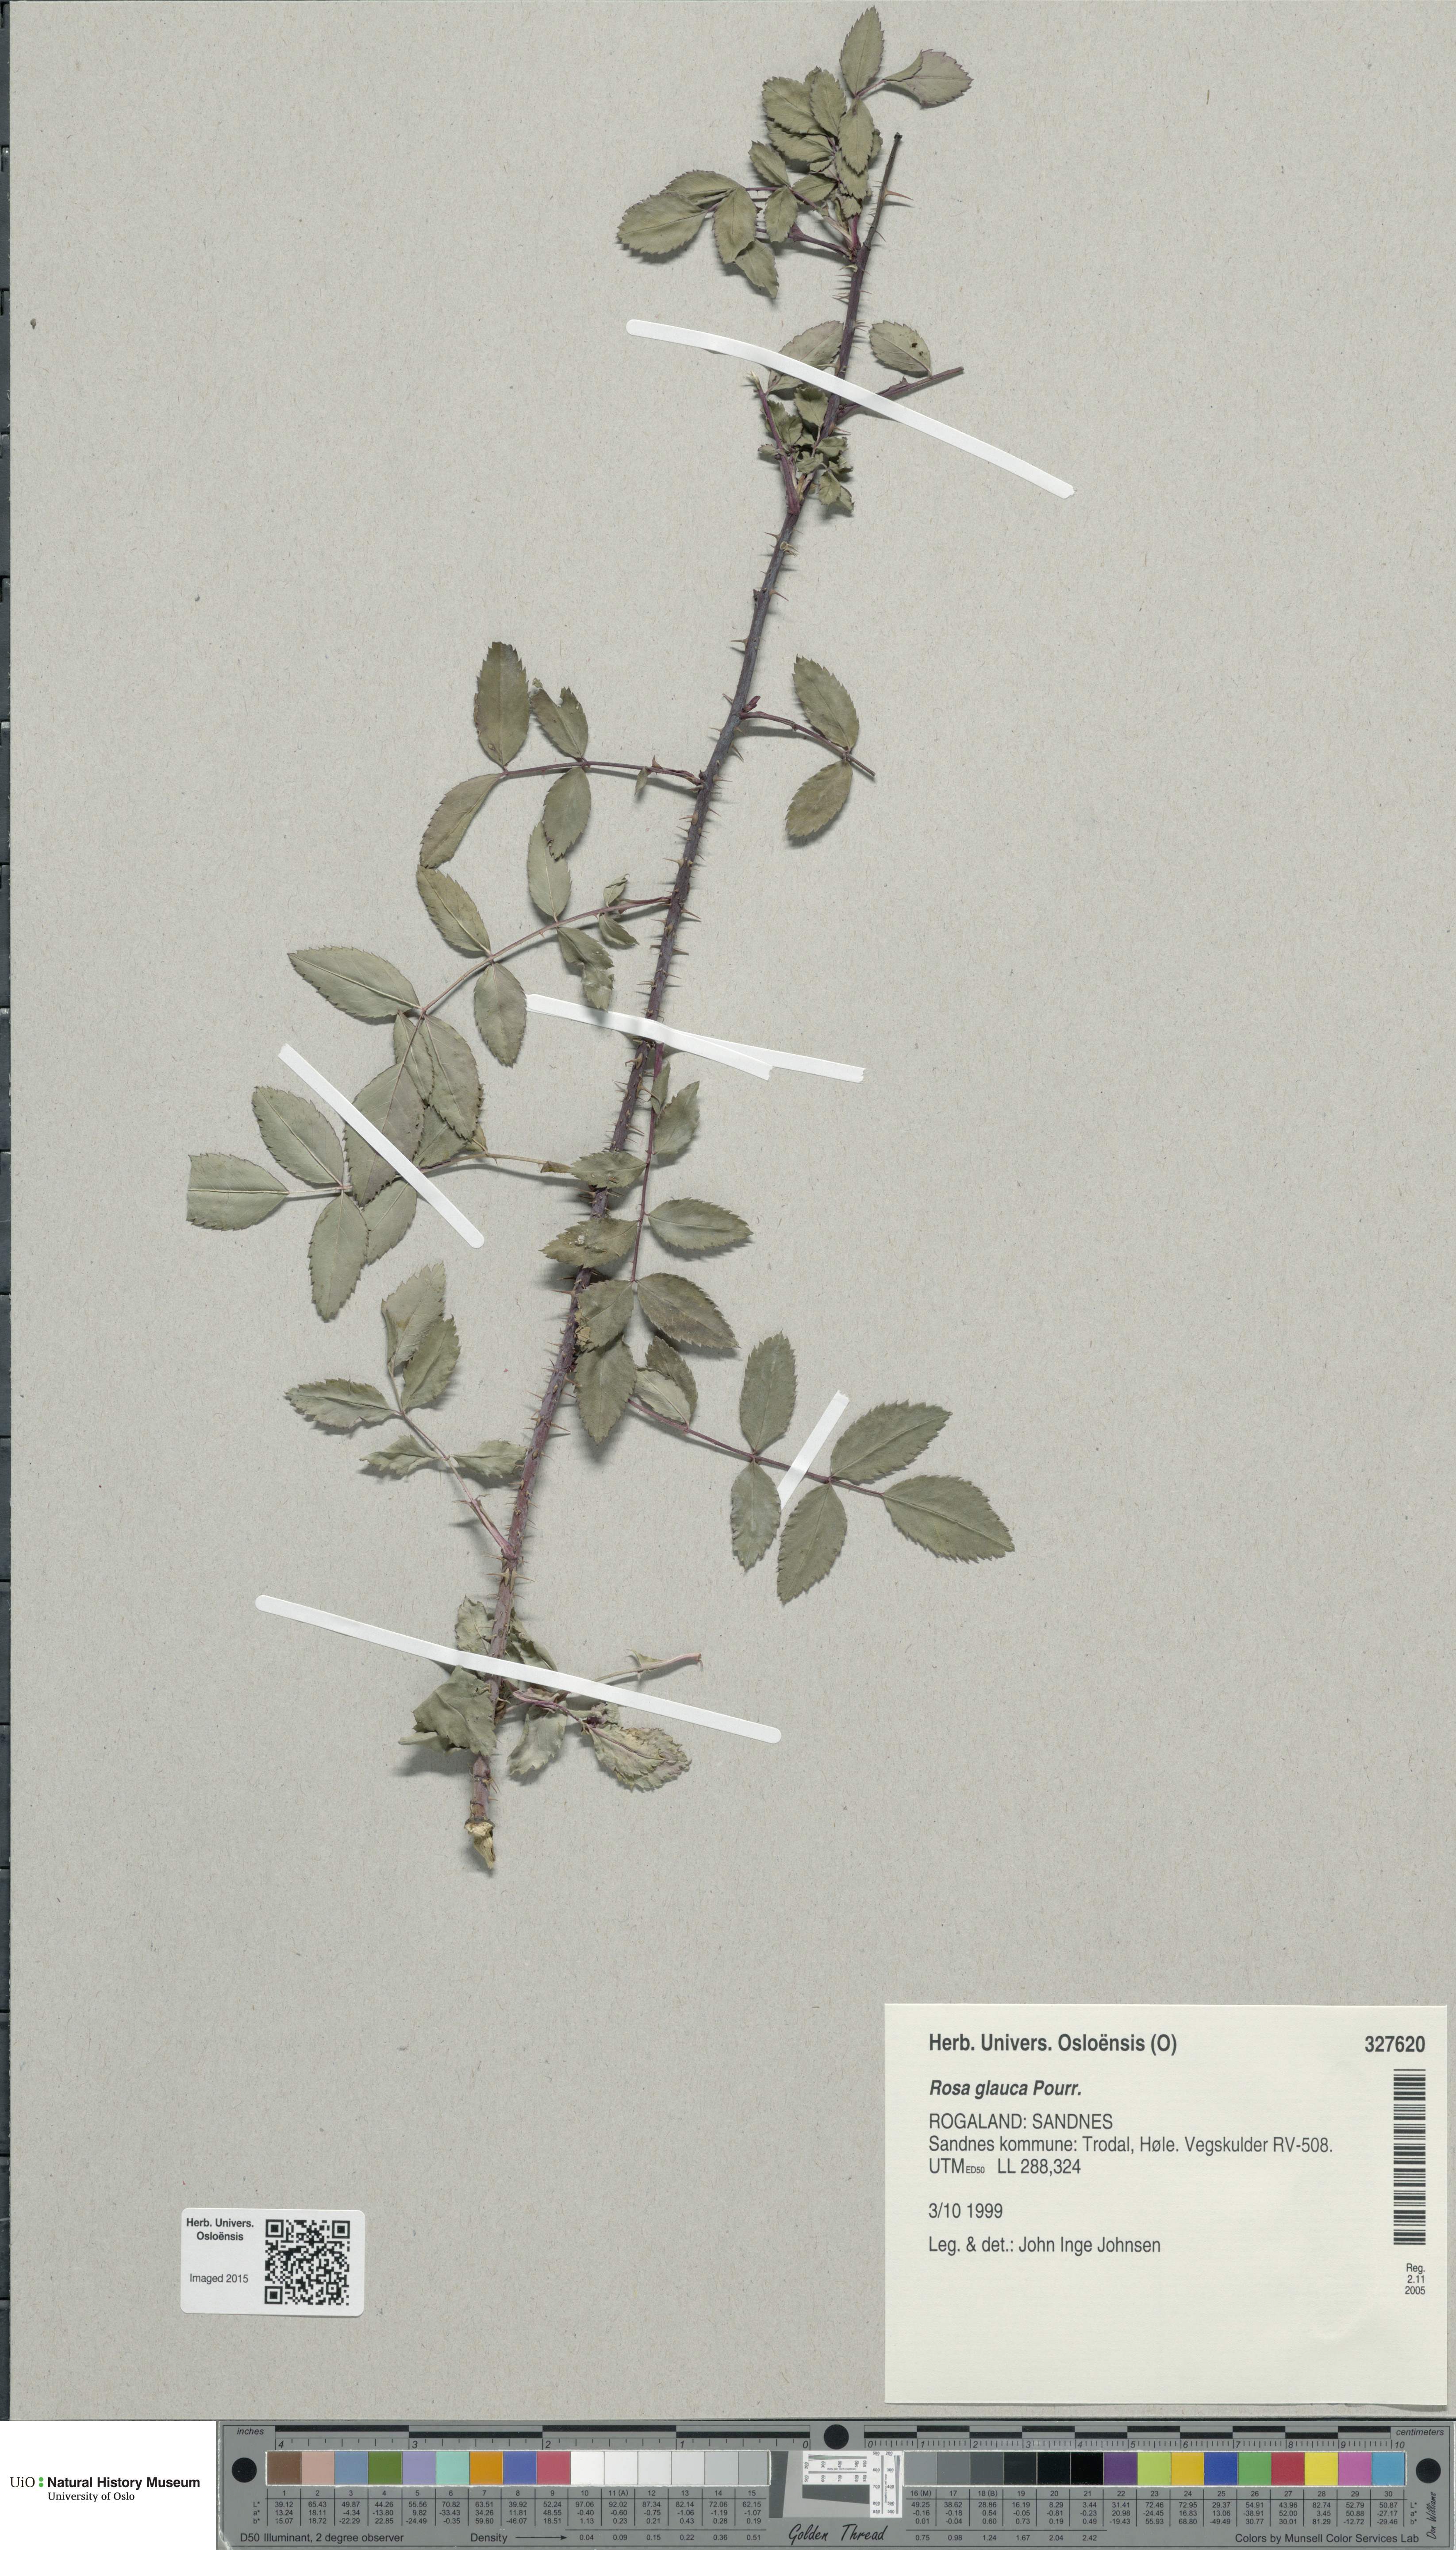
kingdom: Plantae
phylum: Tracheophyta
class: Magnoliopsida
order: Rosales
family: Rosaceae
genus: Rosa
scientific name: Rosa glauca
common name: Redleaf rose
